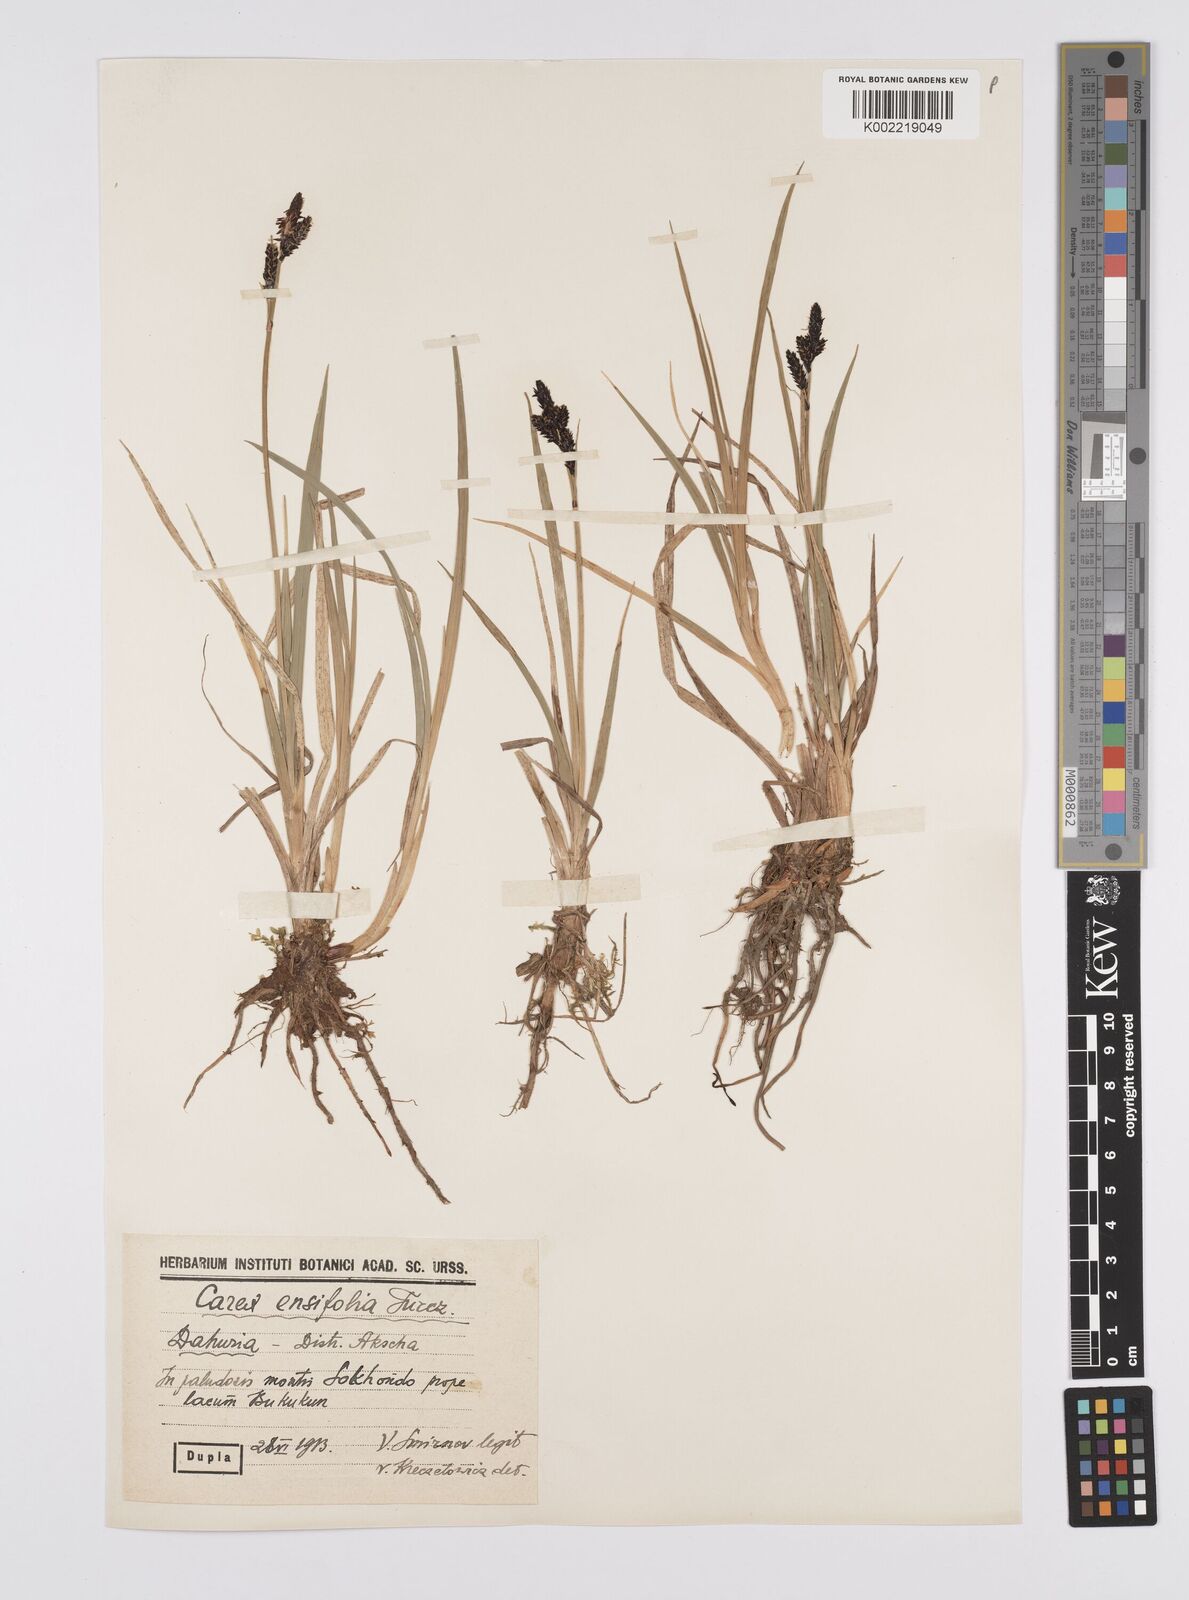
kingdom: Plantae
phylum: Tracheophyta
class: Liliopsida
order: Poales
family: Cyperaceae
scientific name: Cyperaceae
